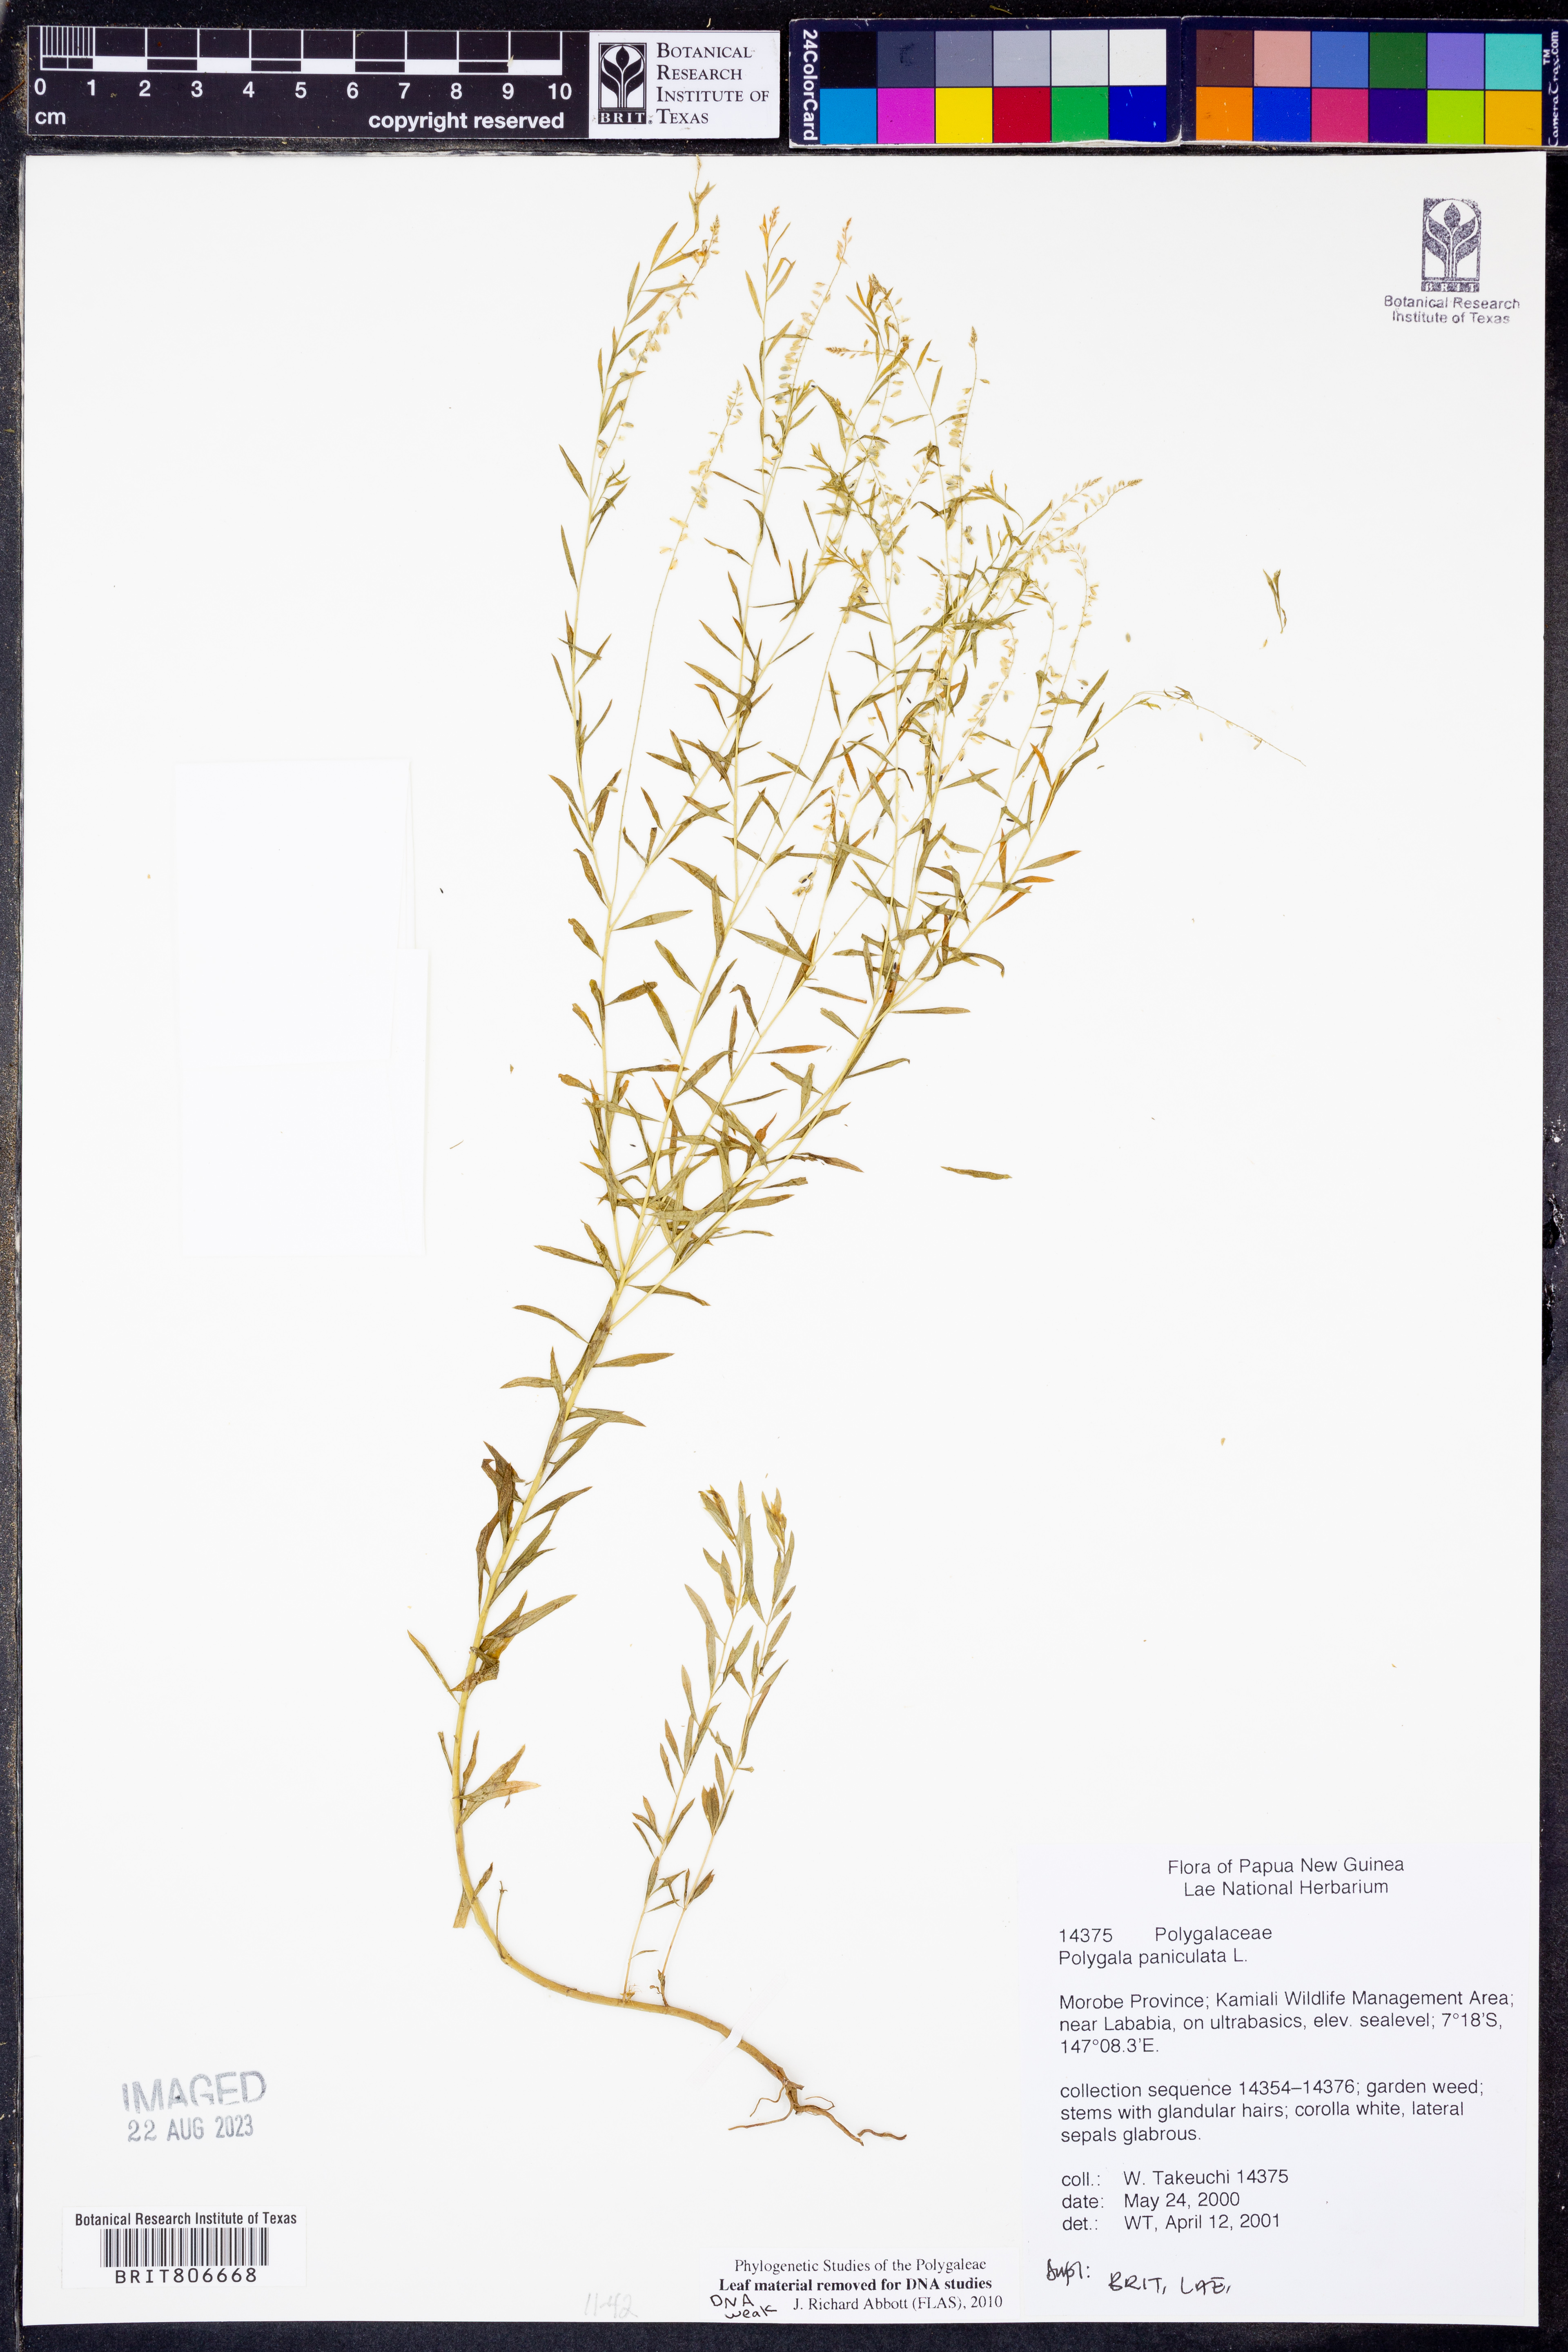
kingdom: Plantae
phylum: Tracheophyta
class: Magnoliopsida
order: Fabales
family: Polygalaceae
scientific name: Polygalaceae
